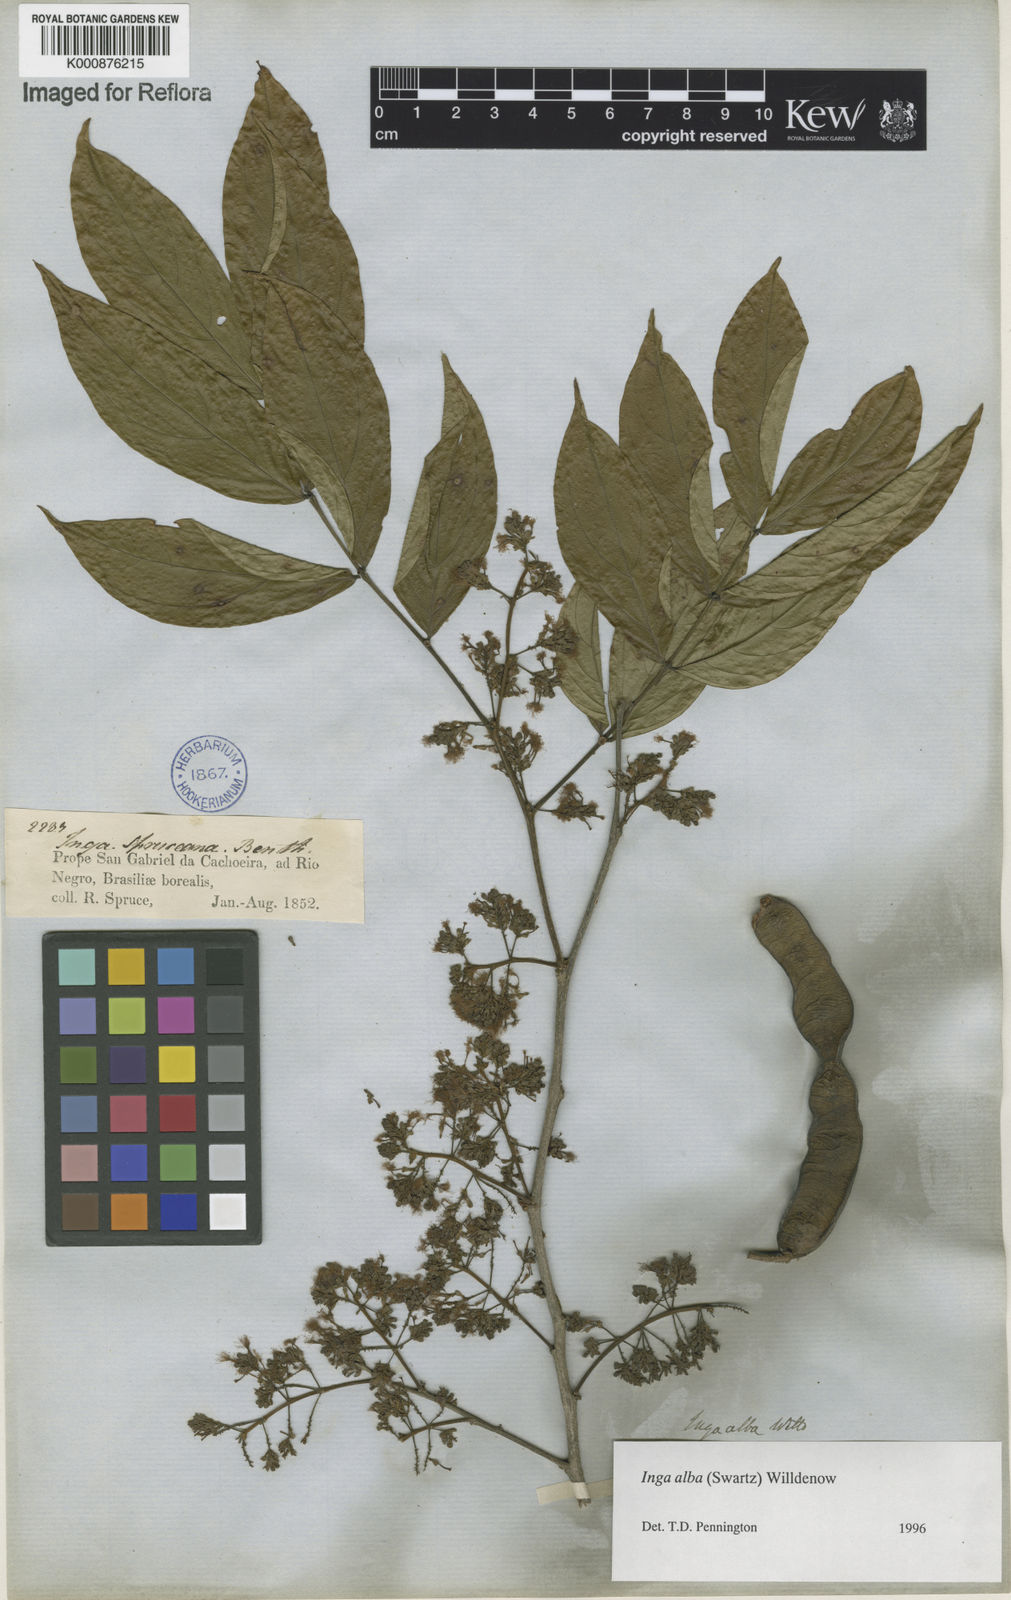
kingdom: Plantae
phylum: Tracheophyta
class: Magnoliopsida
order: Fabales
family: Fabaceae
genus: Inga
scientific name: Inga alba
